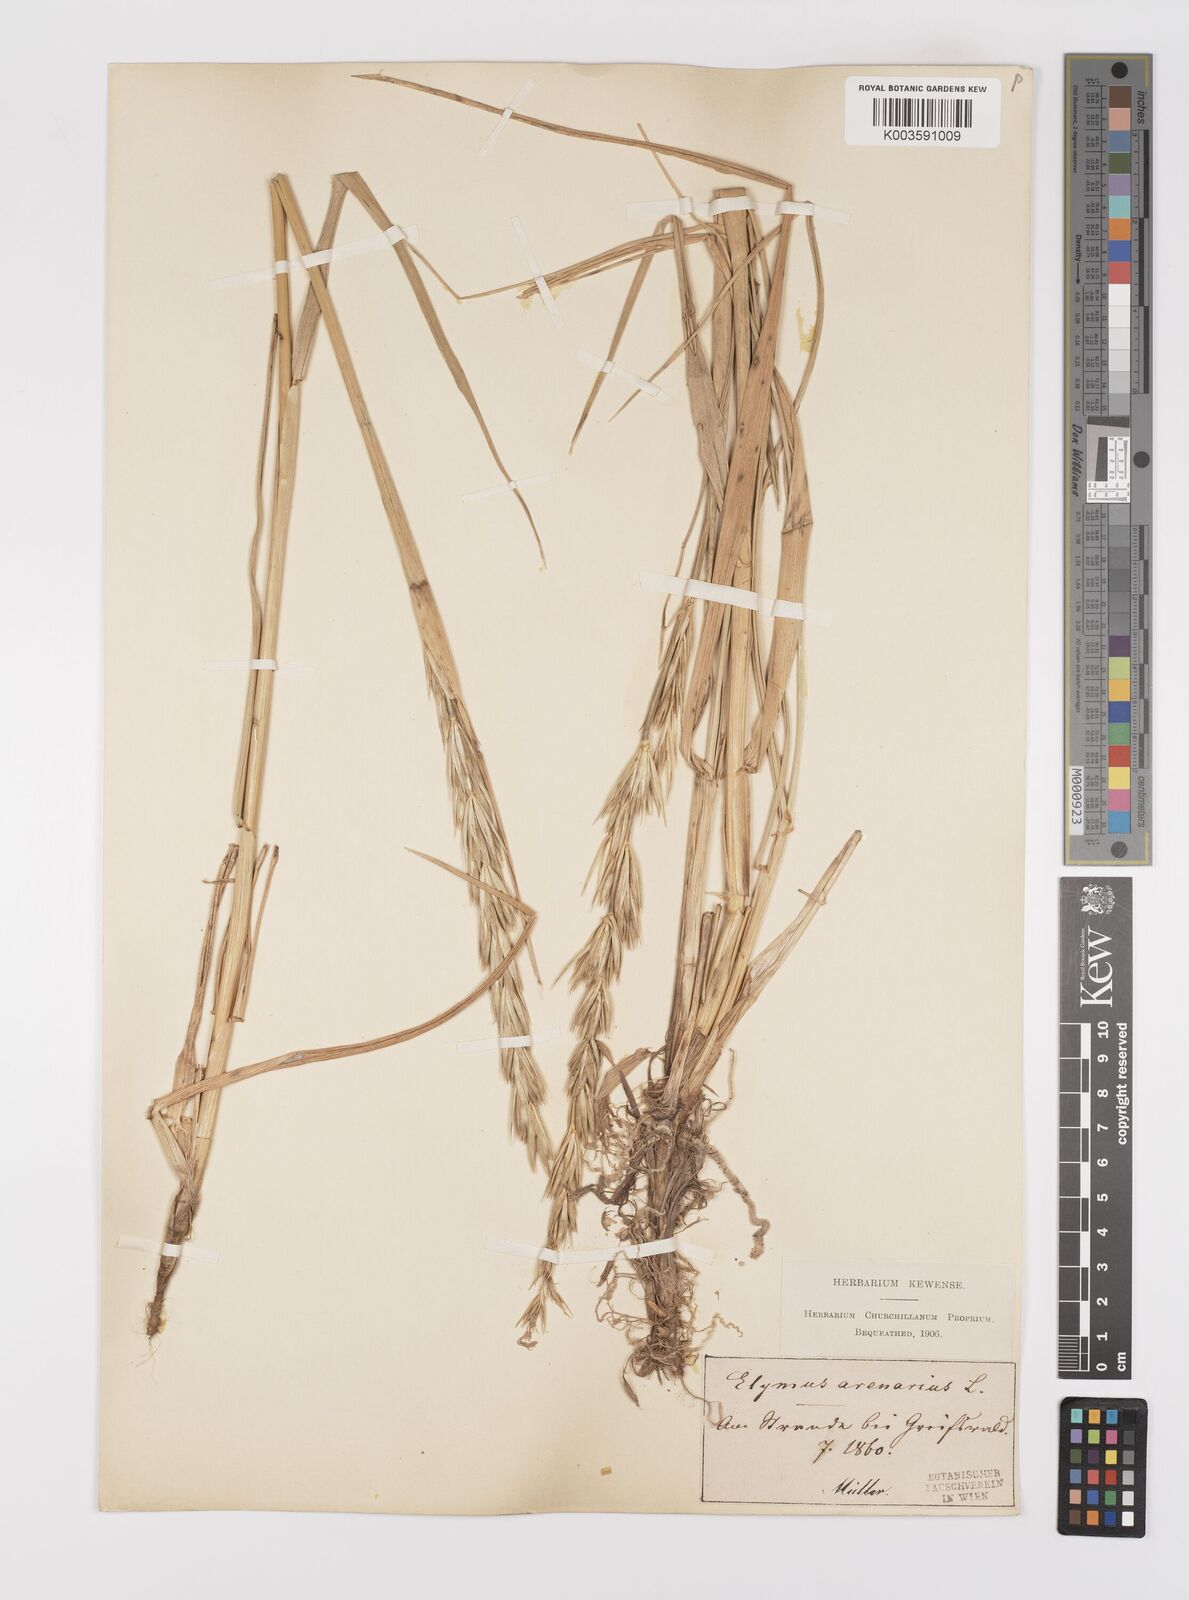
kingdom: Plantae
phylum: Tracheophyta
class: Liliopsida
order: Poales
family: Poaceae
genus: Leymus
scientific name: Leymus arenarius
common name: Lyme-grass
